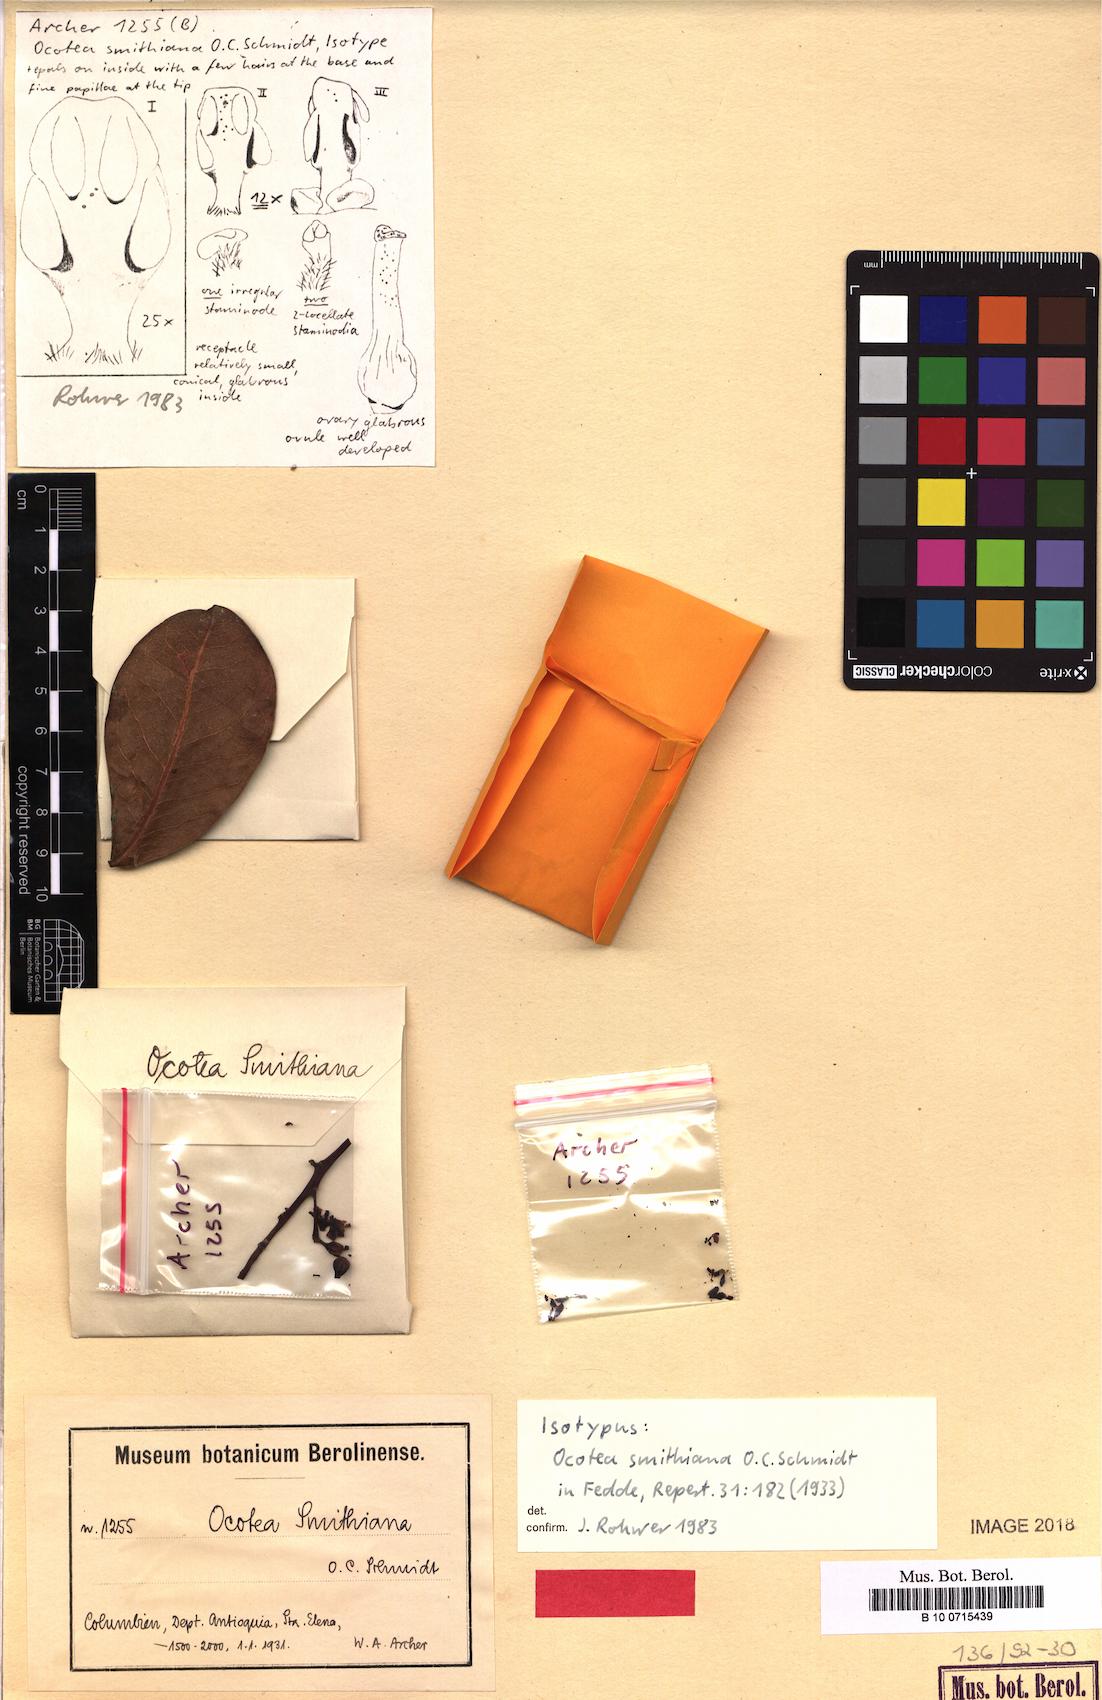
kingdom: Plantae
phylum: Tracheophyta
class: Magnoliopsida
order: Laurales
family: Lauraceae
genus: Andea
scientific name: Andea smithiana
